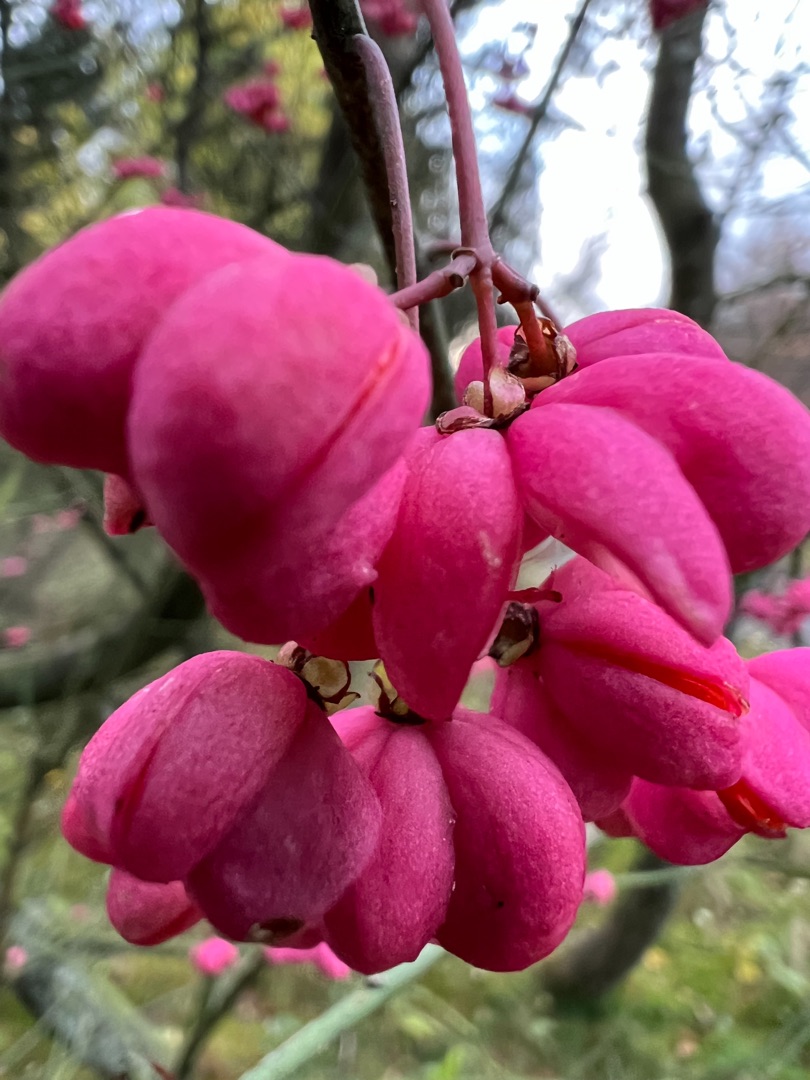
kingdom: Plantae
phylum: Tracheophyta
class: Magnoliopsida
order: Celastrales
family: Celastraceae
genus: Euonymus
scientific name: Euonymus europaeus
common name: Benved
